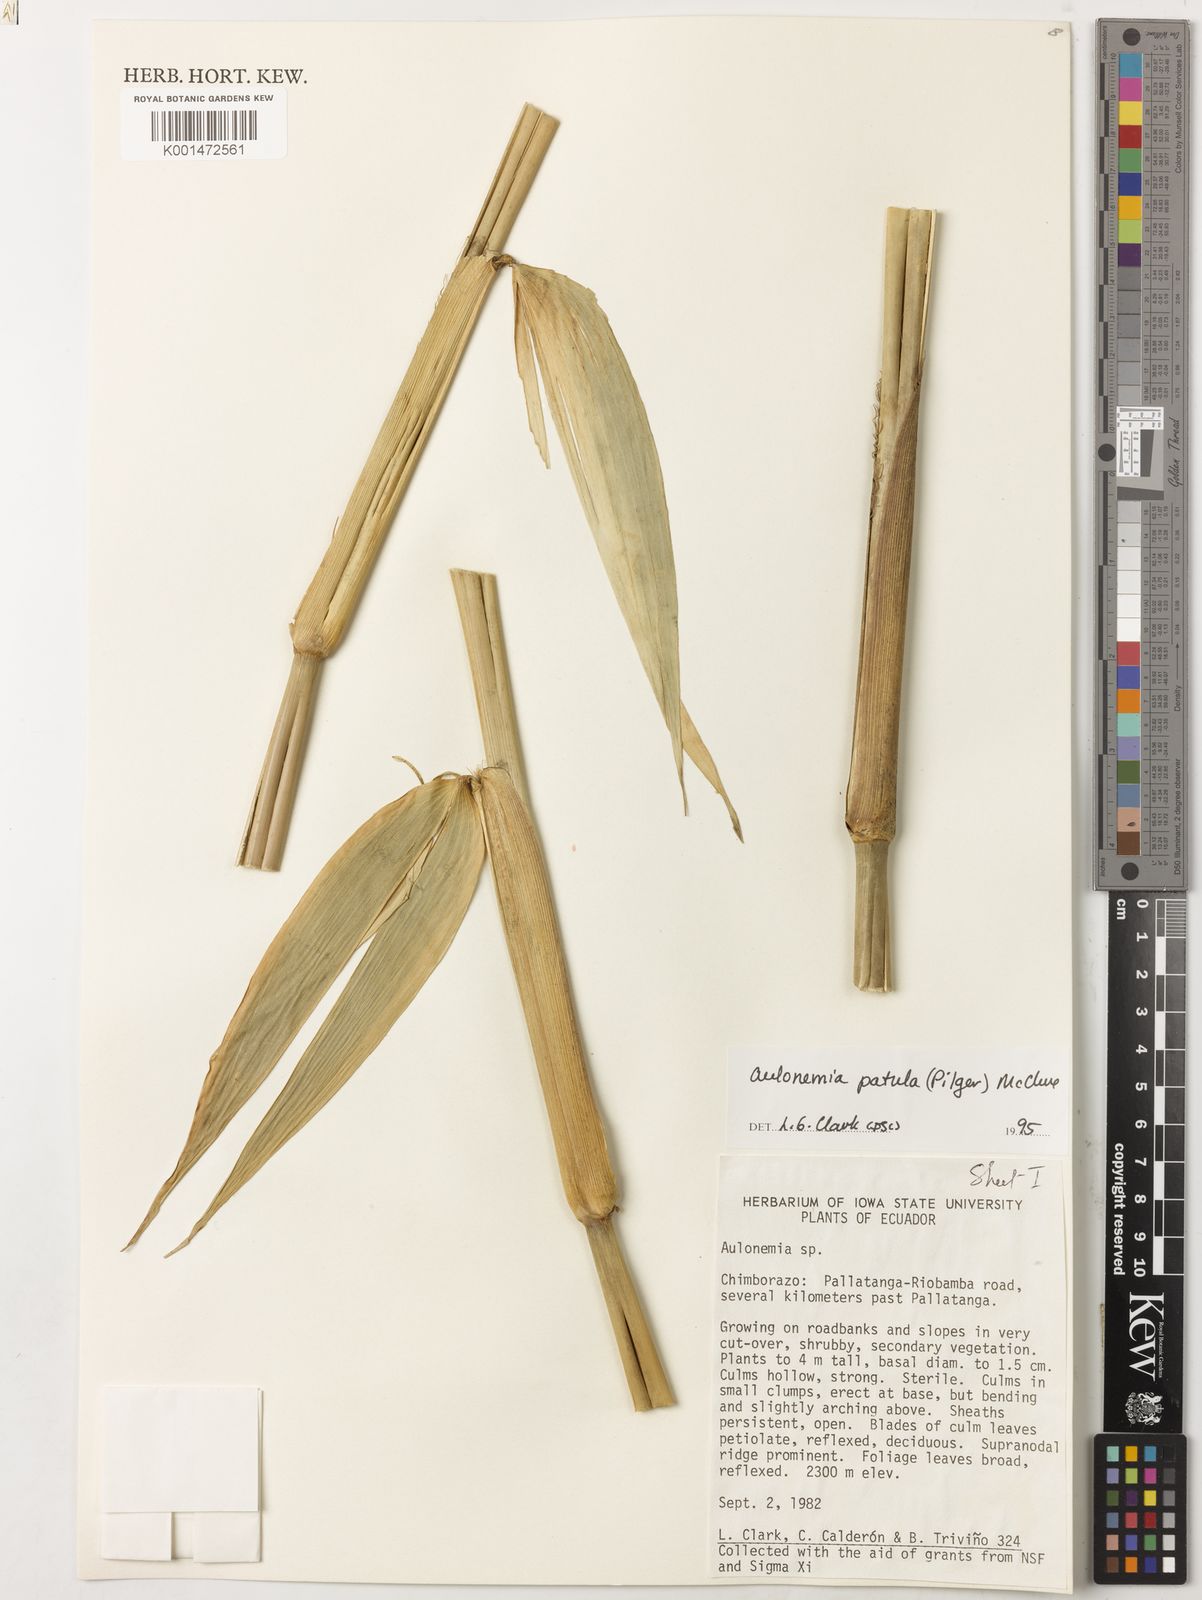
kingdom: Plantae
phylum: Tracheophyta
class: Liliopsida
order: Poales
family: Poaceae
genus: Aulonemia
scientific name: Aulonemia patula
